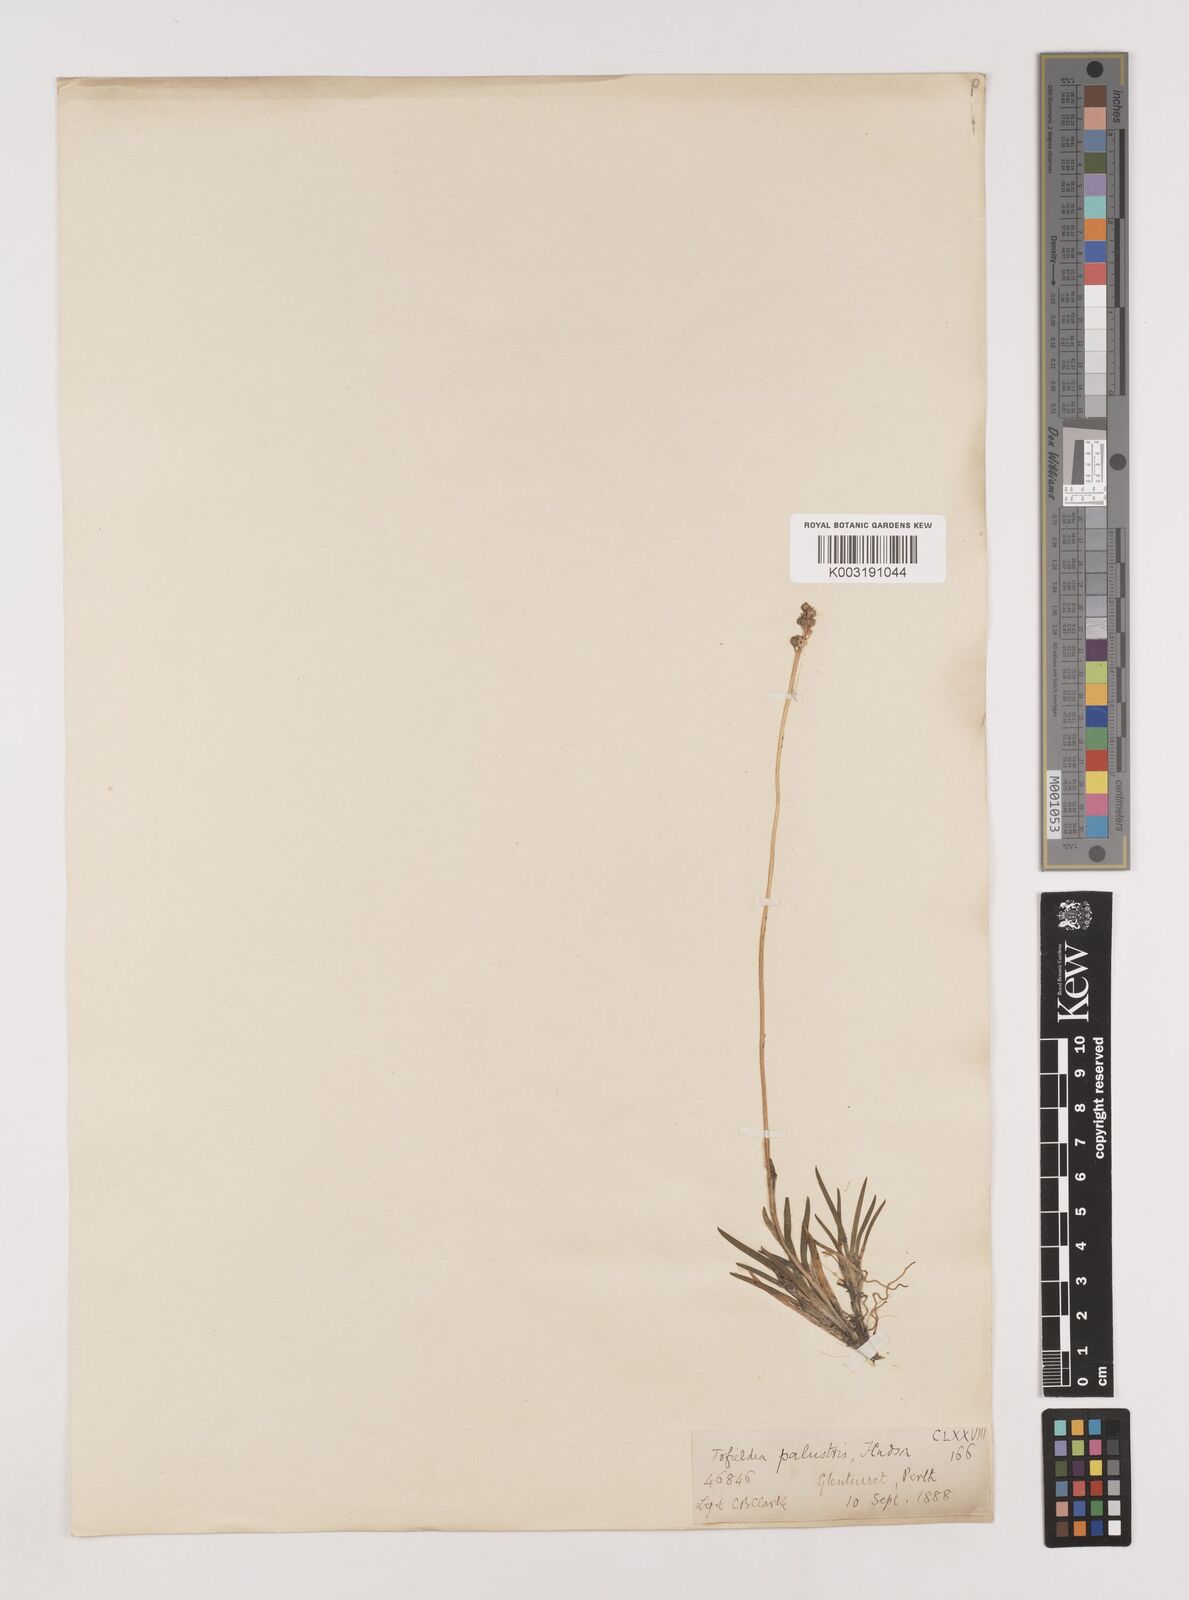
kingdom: Plantae
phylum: Tracheophyta
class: Liliopsida
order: Alismatales
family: Tofieldiaceae
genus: Tofieldia
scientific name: Tofieldia pusilla
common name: Scottish false asphodel
